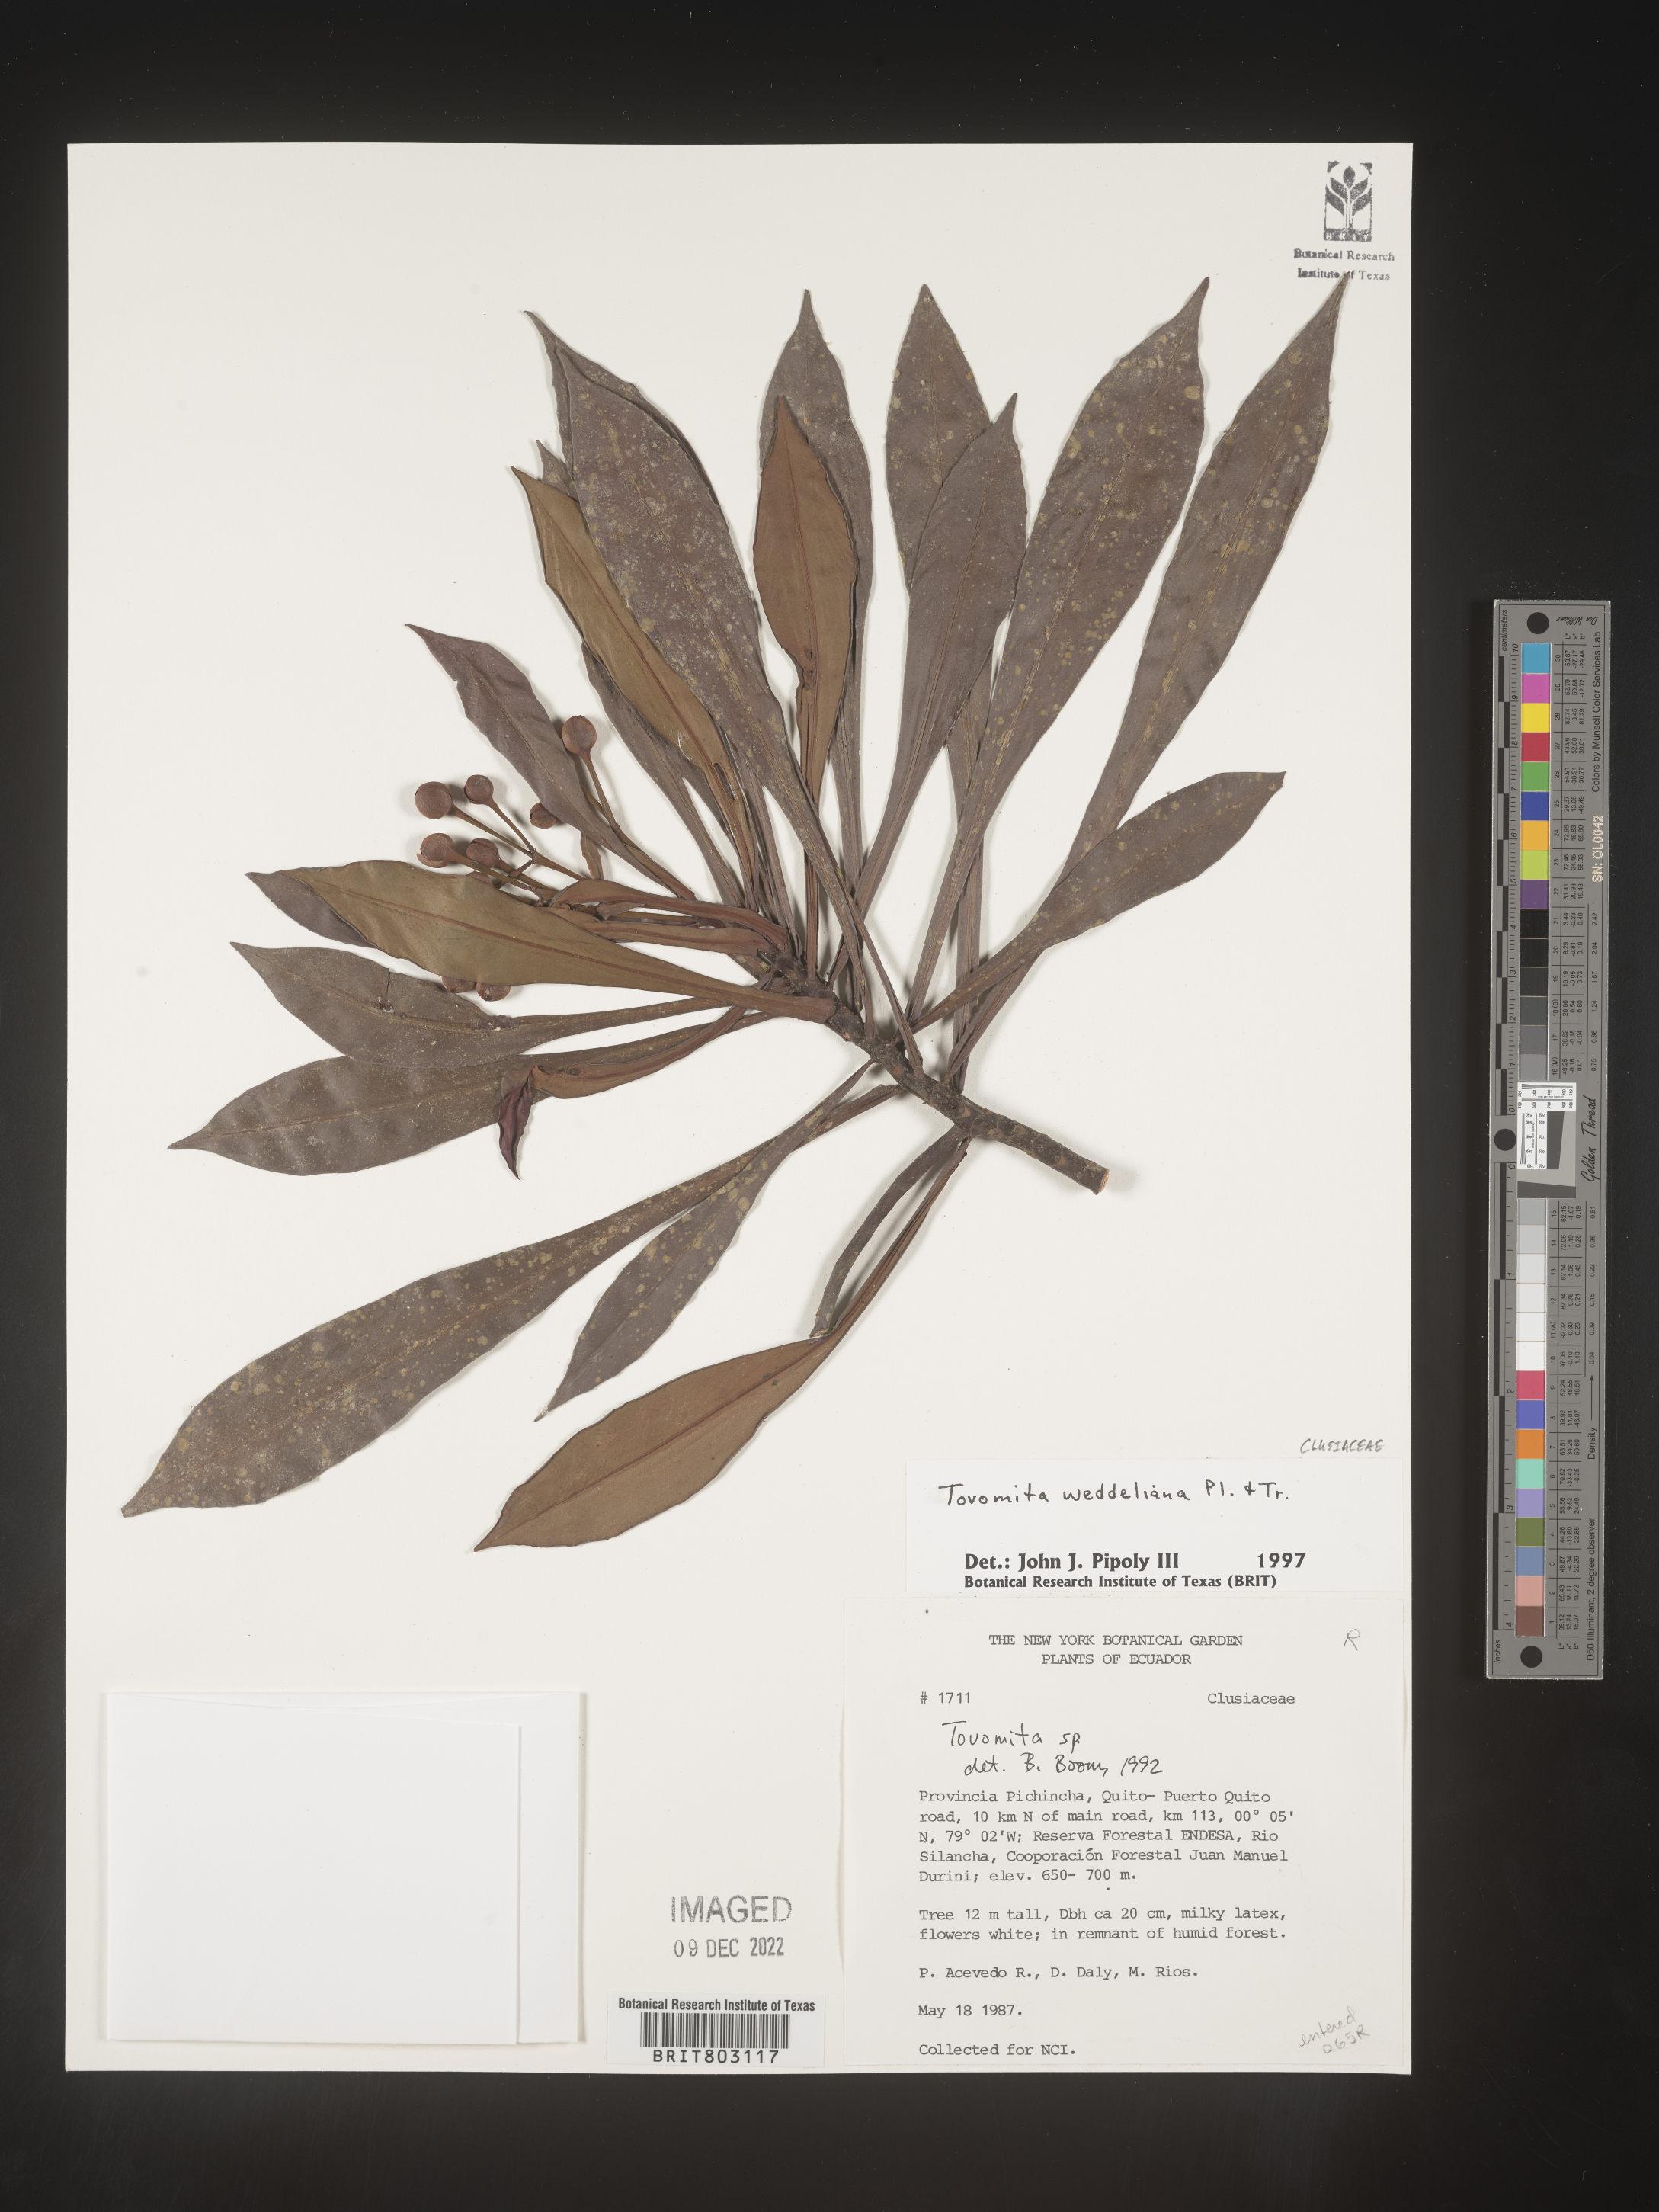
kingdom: Plantae
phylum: Tracheophyta
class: Magnoliopsida
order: Malpighiales
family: Clusiaceae
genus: Arawakia
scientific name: Arawakia weddelliana
